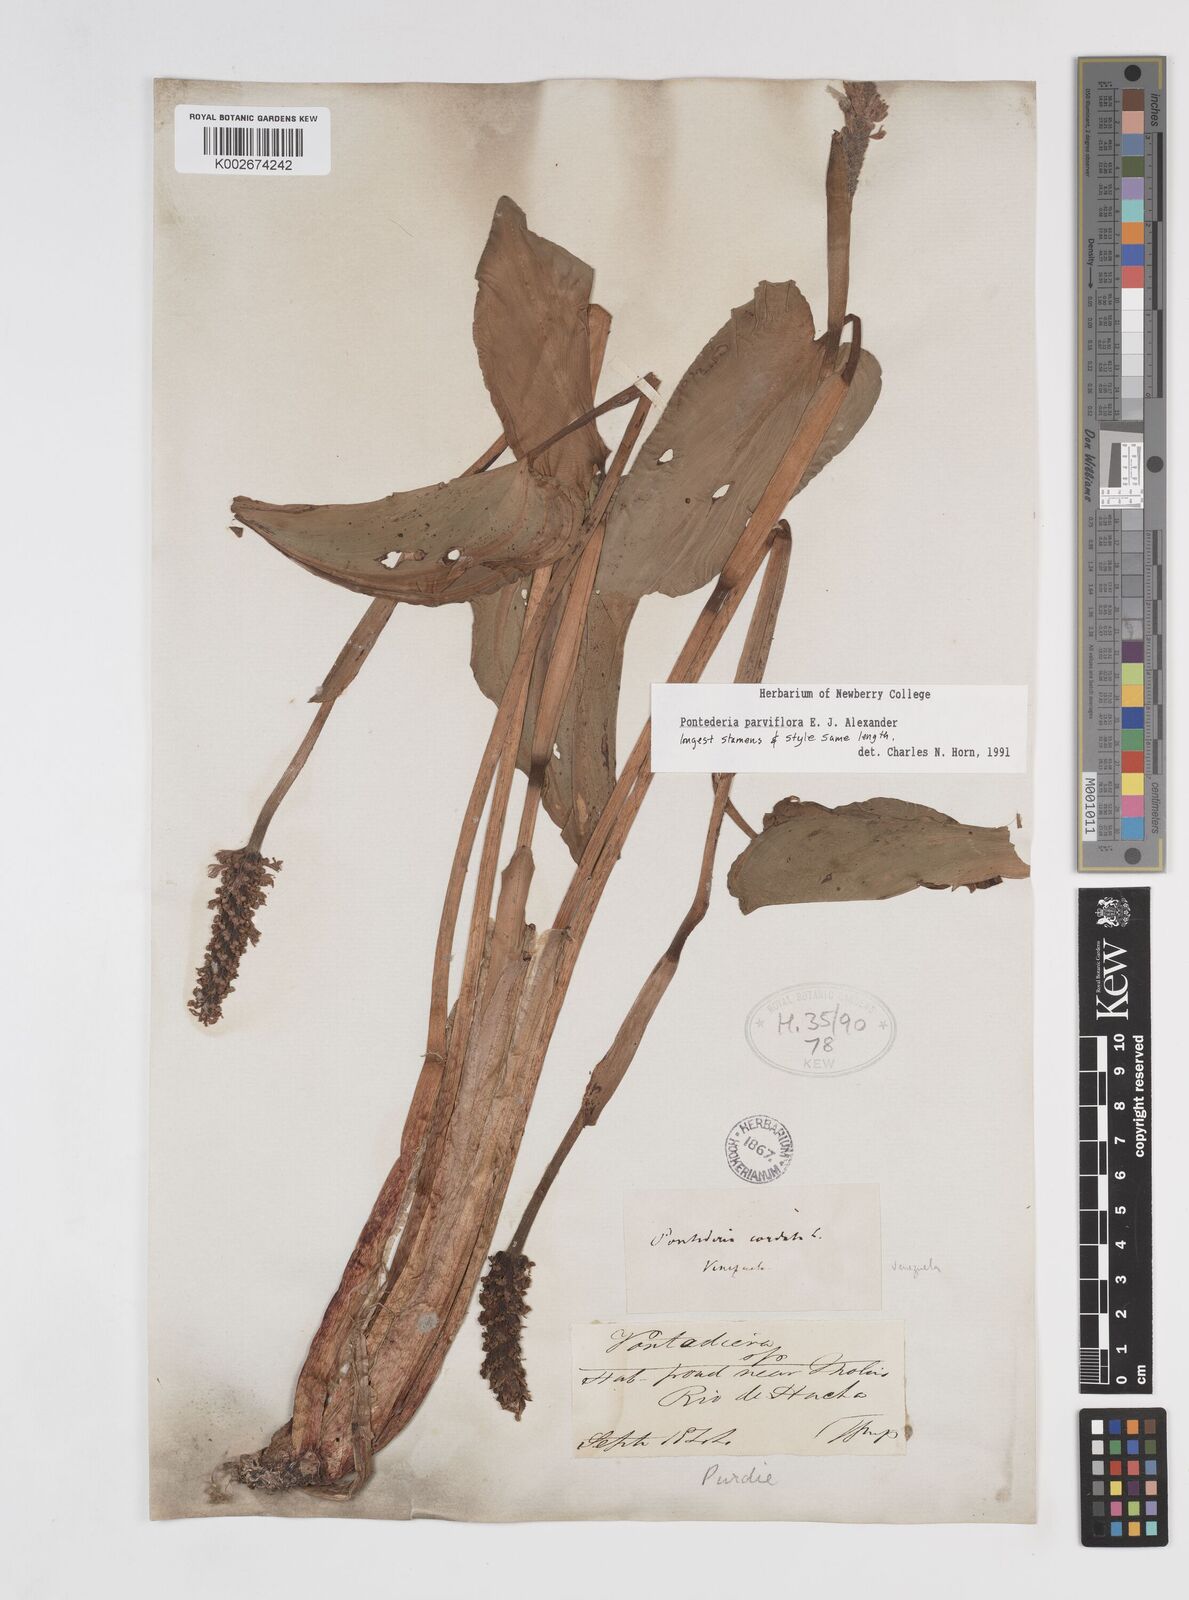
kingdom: Plantae
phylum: Tracheophyta
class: Liliopsida
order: Commelinales
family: Pontederiaceae
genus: Pontederia
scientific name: Pontederia parviflora
